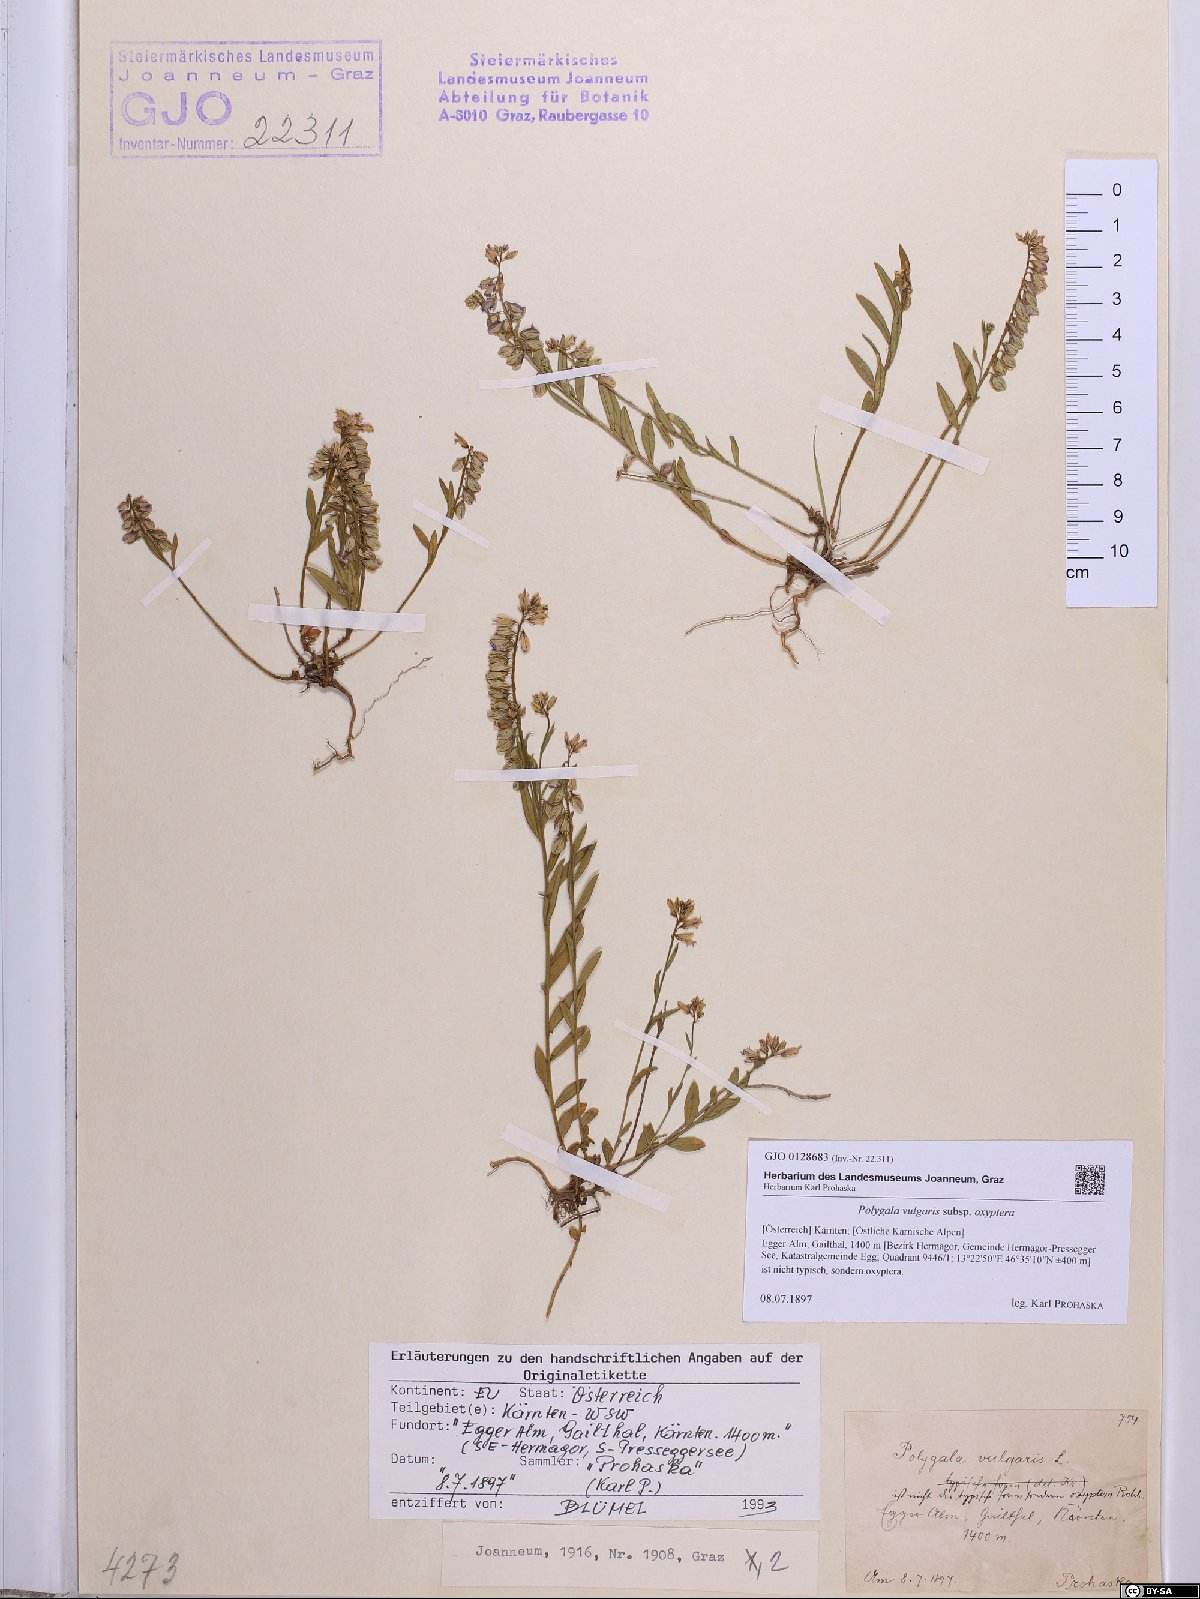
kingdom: Plantae
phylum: Tracheophyta
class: Magnoliopsida
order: Fabales
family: Polygalaceae
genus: Polygala
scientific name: Polygala vulgaris
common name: Common milkwort
